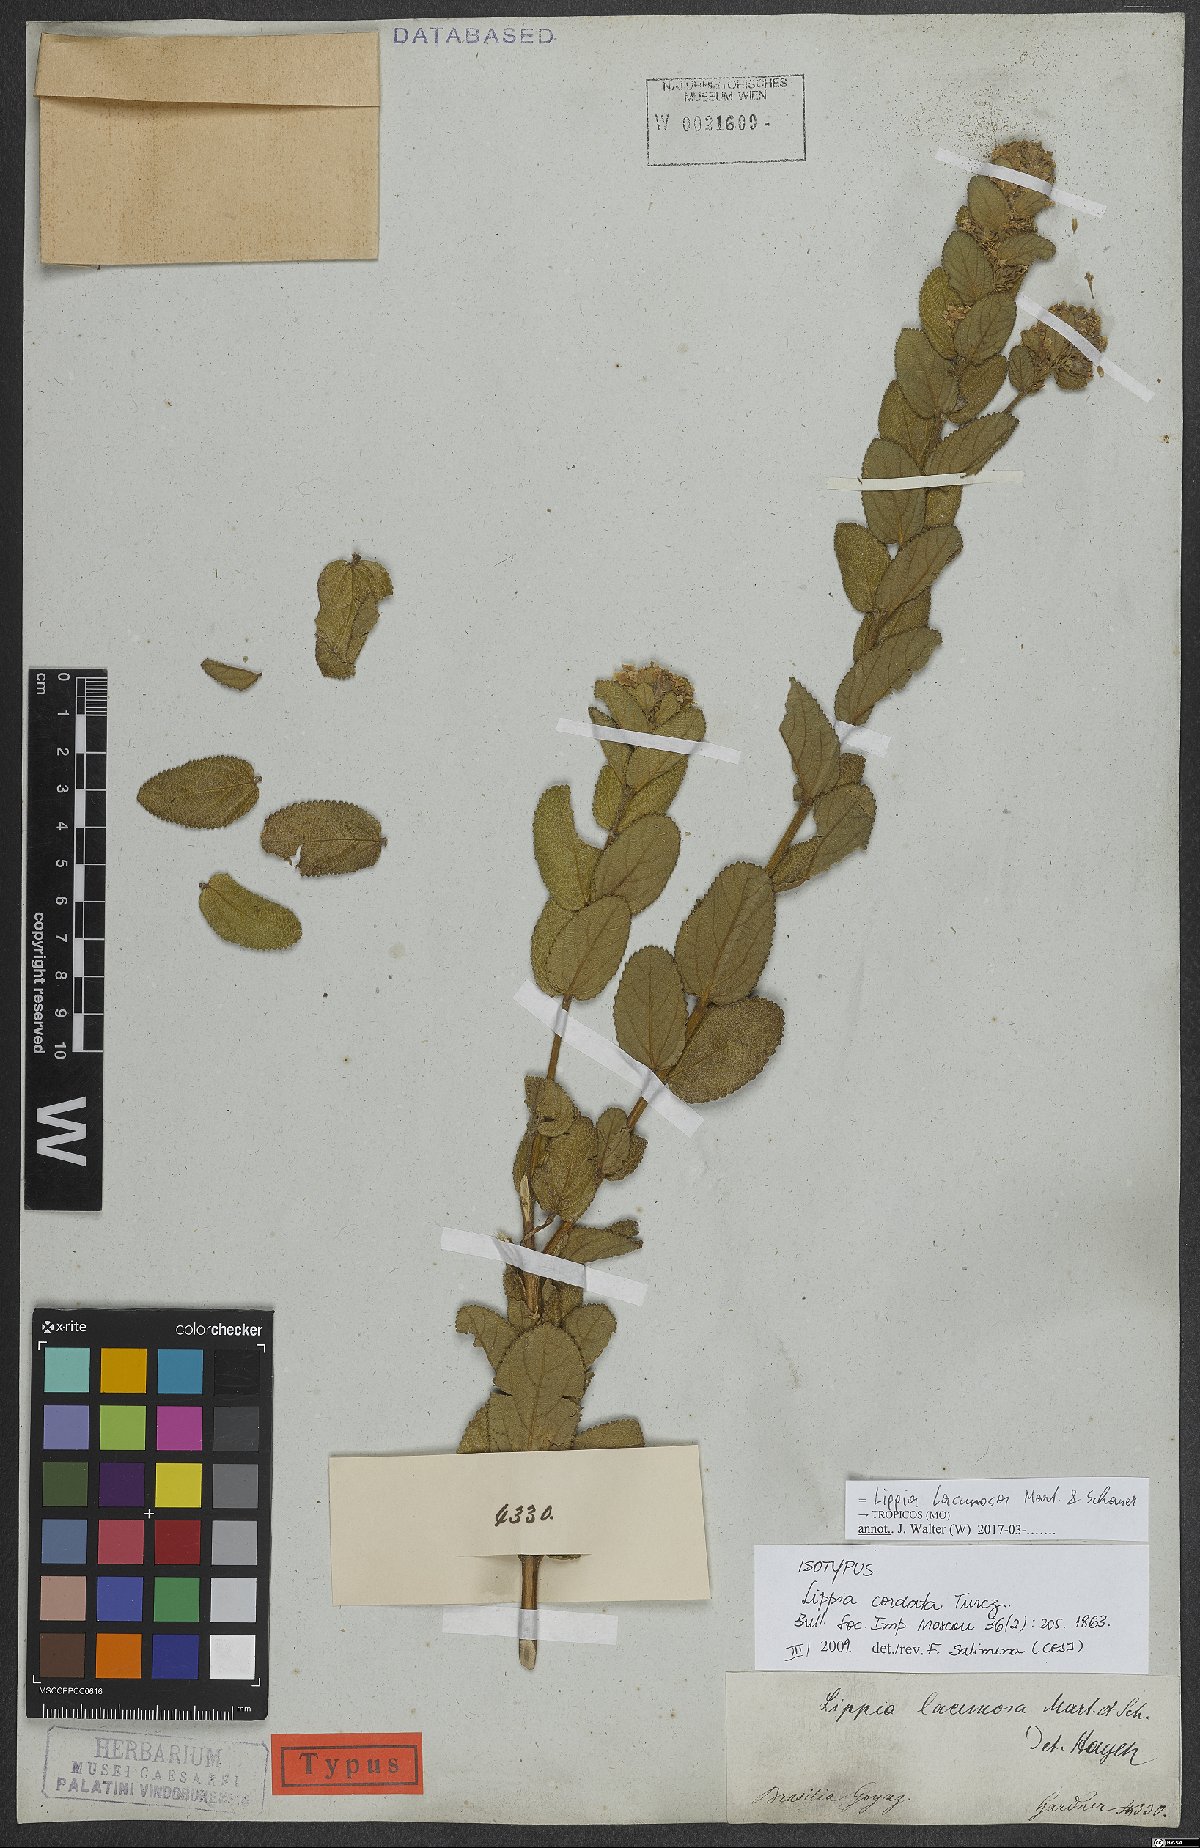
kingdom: Plantae
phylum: Tracheophyta
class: Magnoliopsida
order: Lamiales
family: Verbenaceae
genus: Lippia
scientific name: Lippia lacunosa
